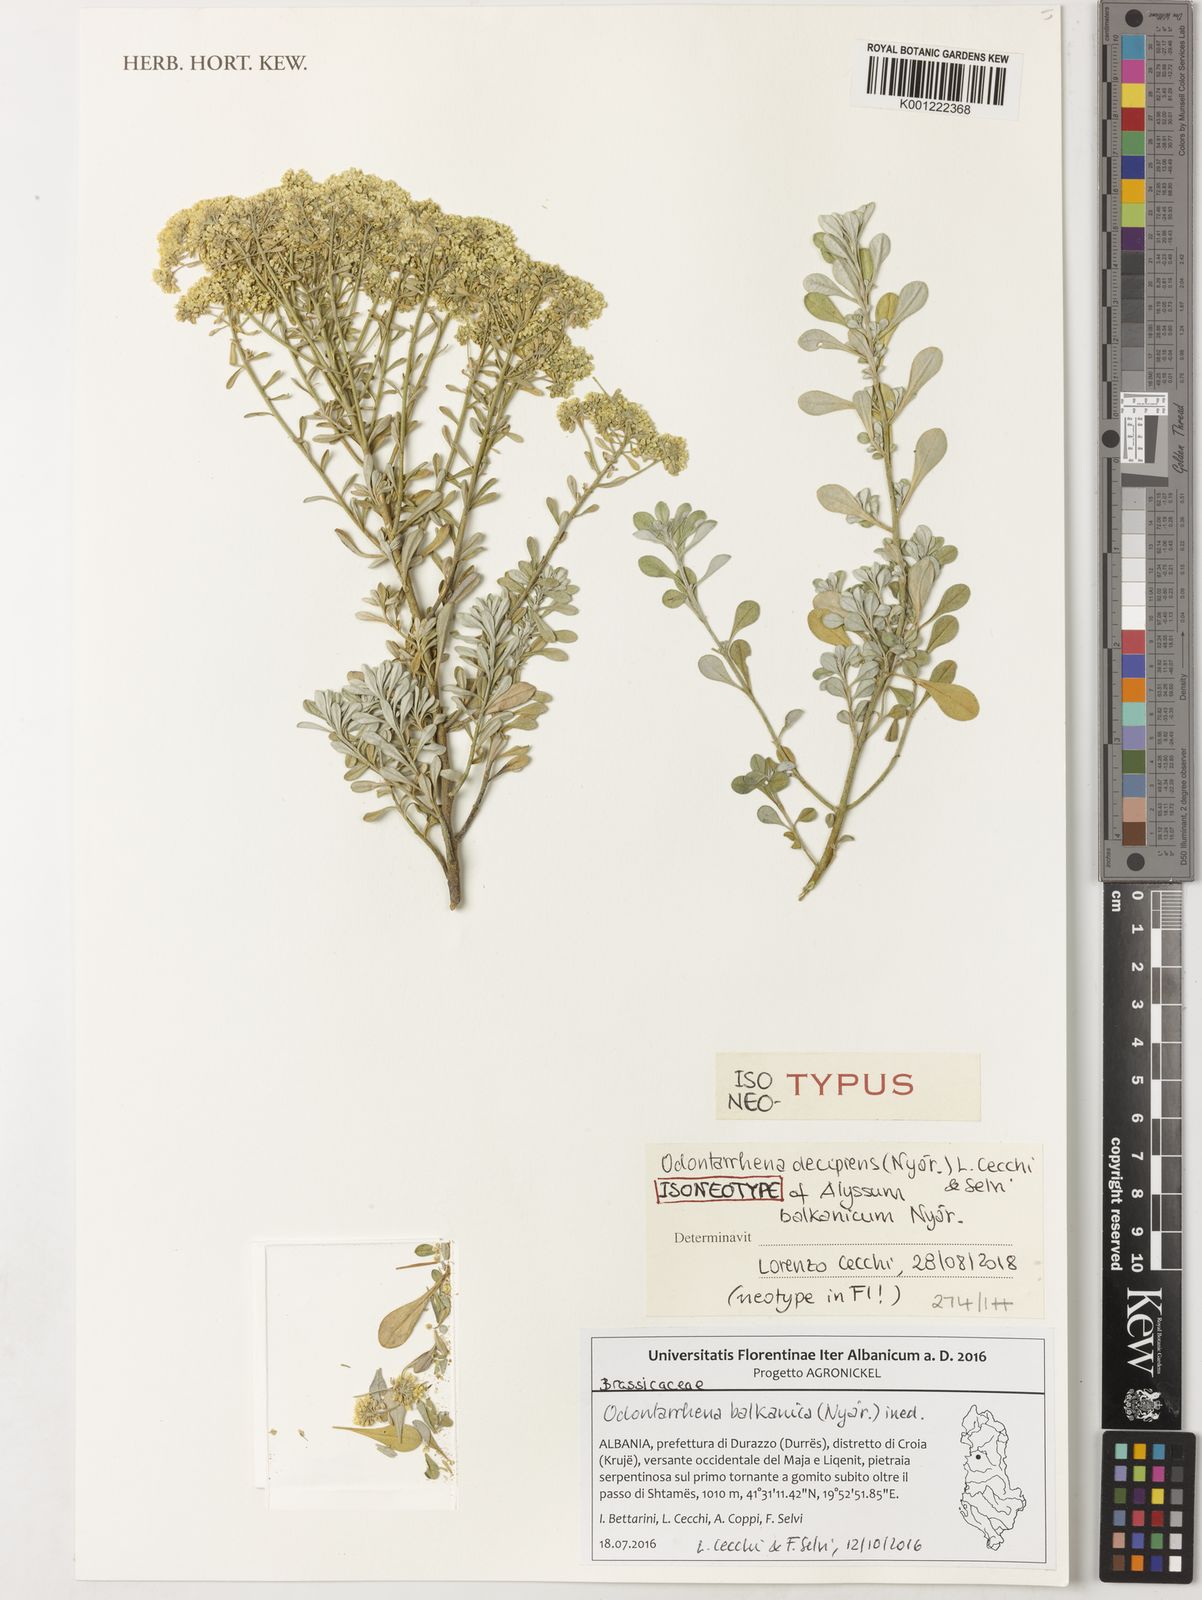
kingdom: Plantae
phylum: Tracheophyta
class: Magnoliopsida
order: Brassicales
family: Brassicaceae
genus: Odontarrhena
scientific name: Odontarrhena
